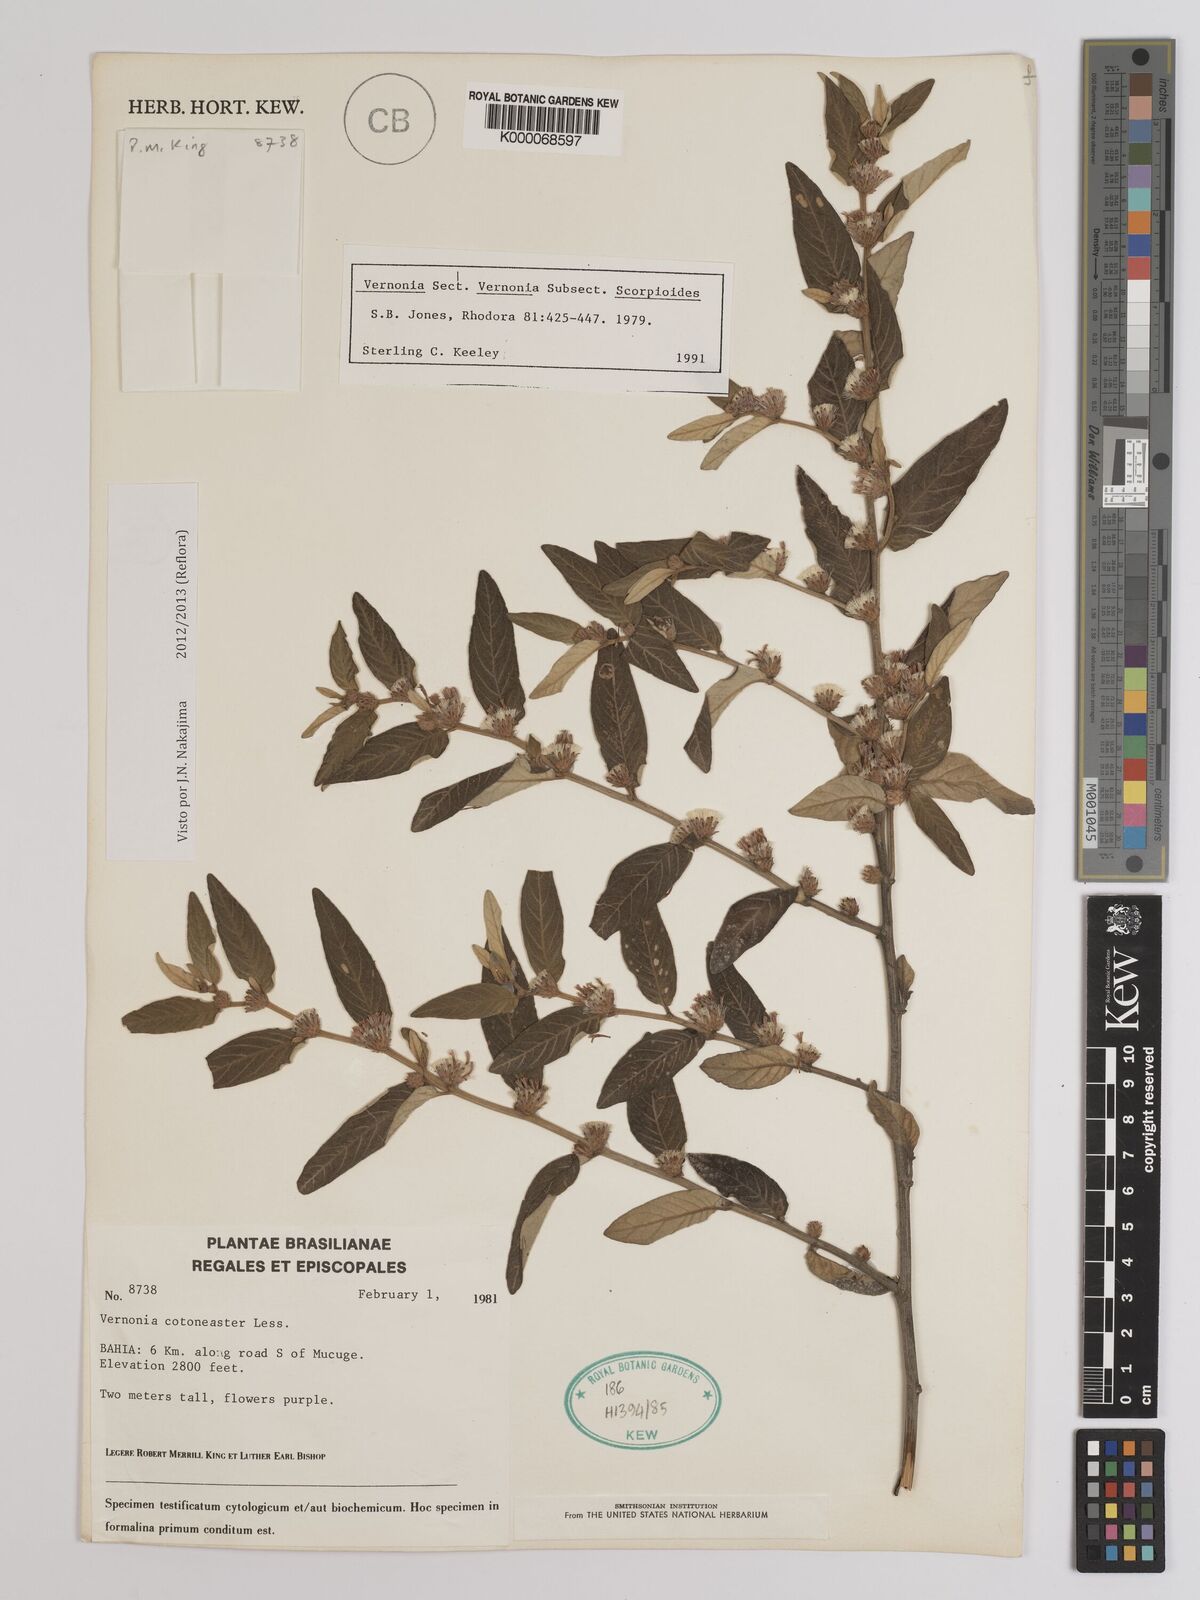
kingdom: Plantae
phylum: Tracheophyta
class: Magnoliopsida
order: Asterales
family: Asteraceae
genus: Lepidaploa
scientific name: Lepidaploa cotoneaster
